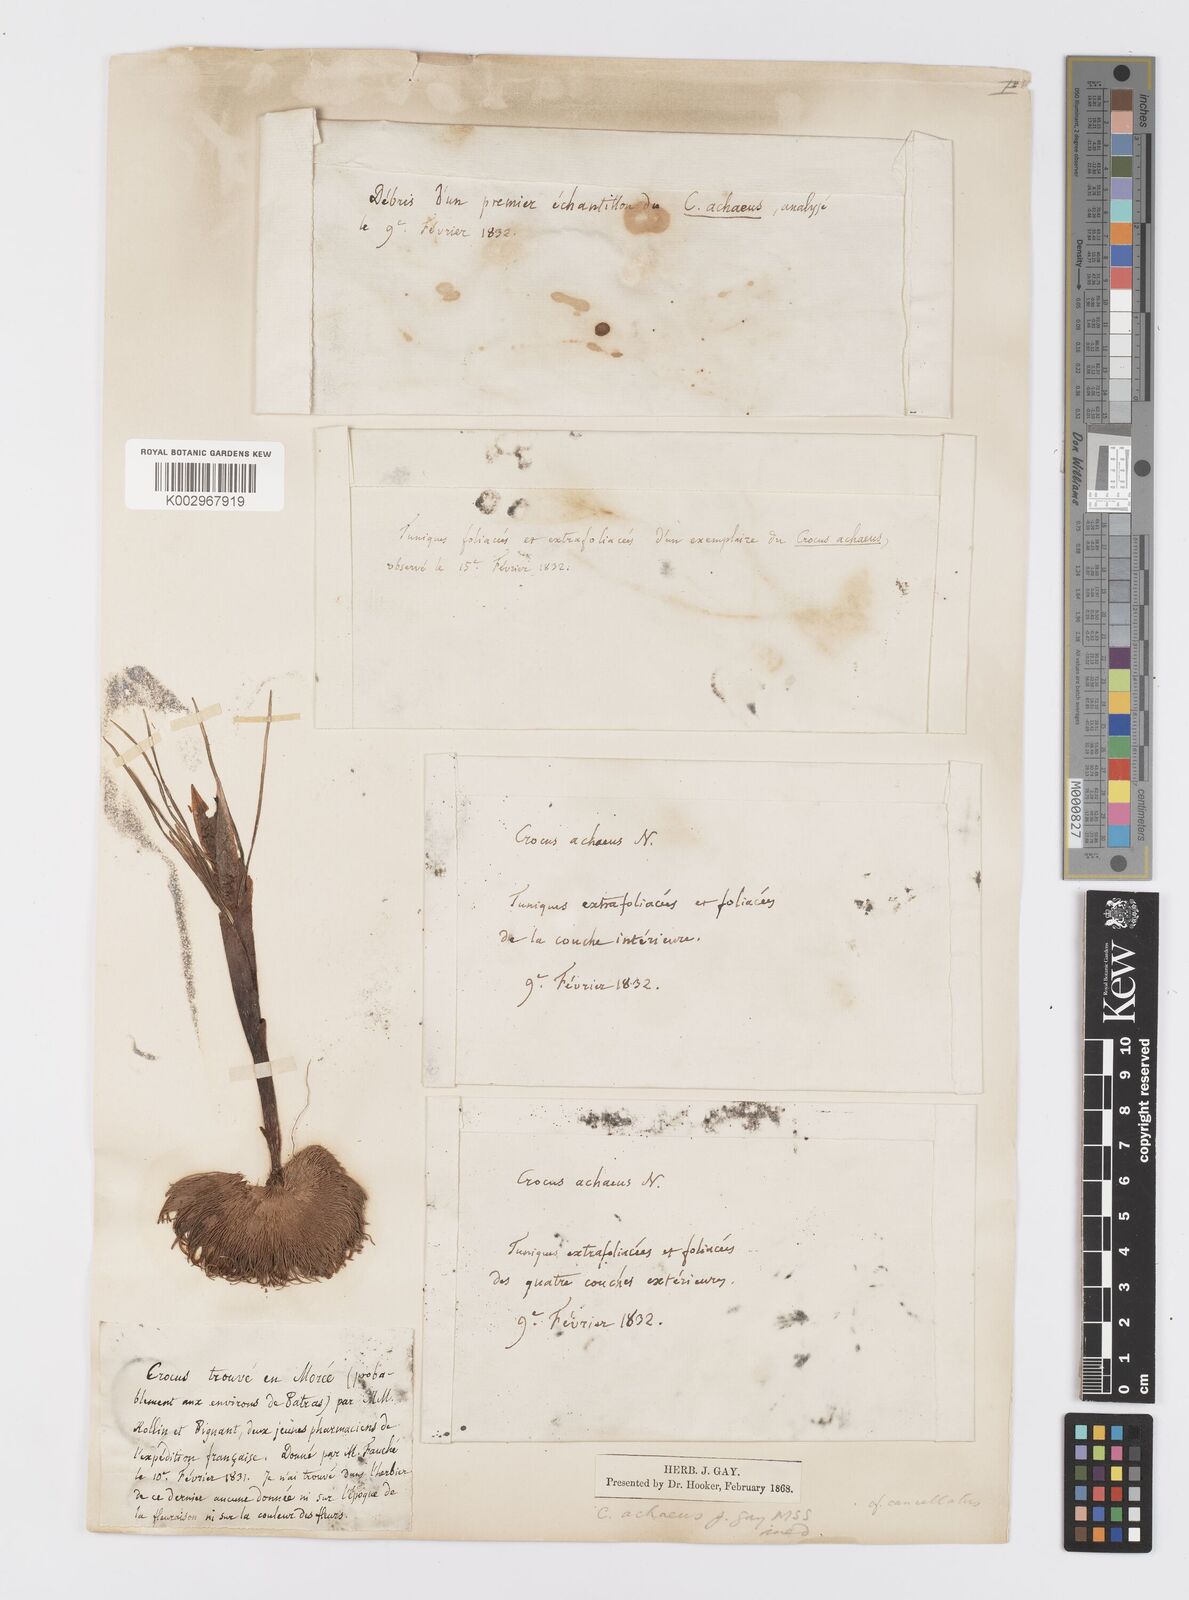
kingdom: Plantae
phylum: Tracheophyta
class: Liliopsida
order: Asparagales
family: Iridaceae
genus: Crocus
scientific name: Crocus
